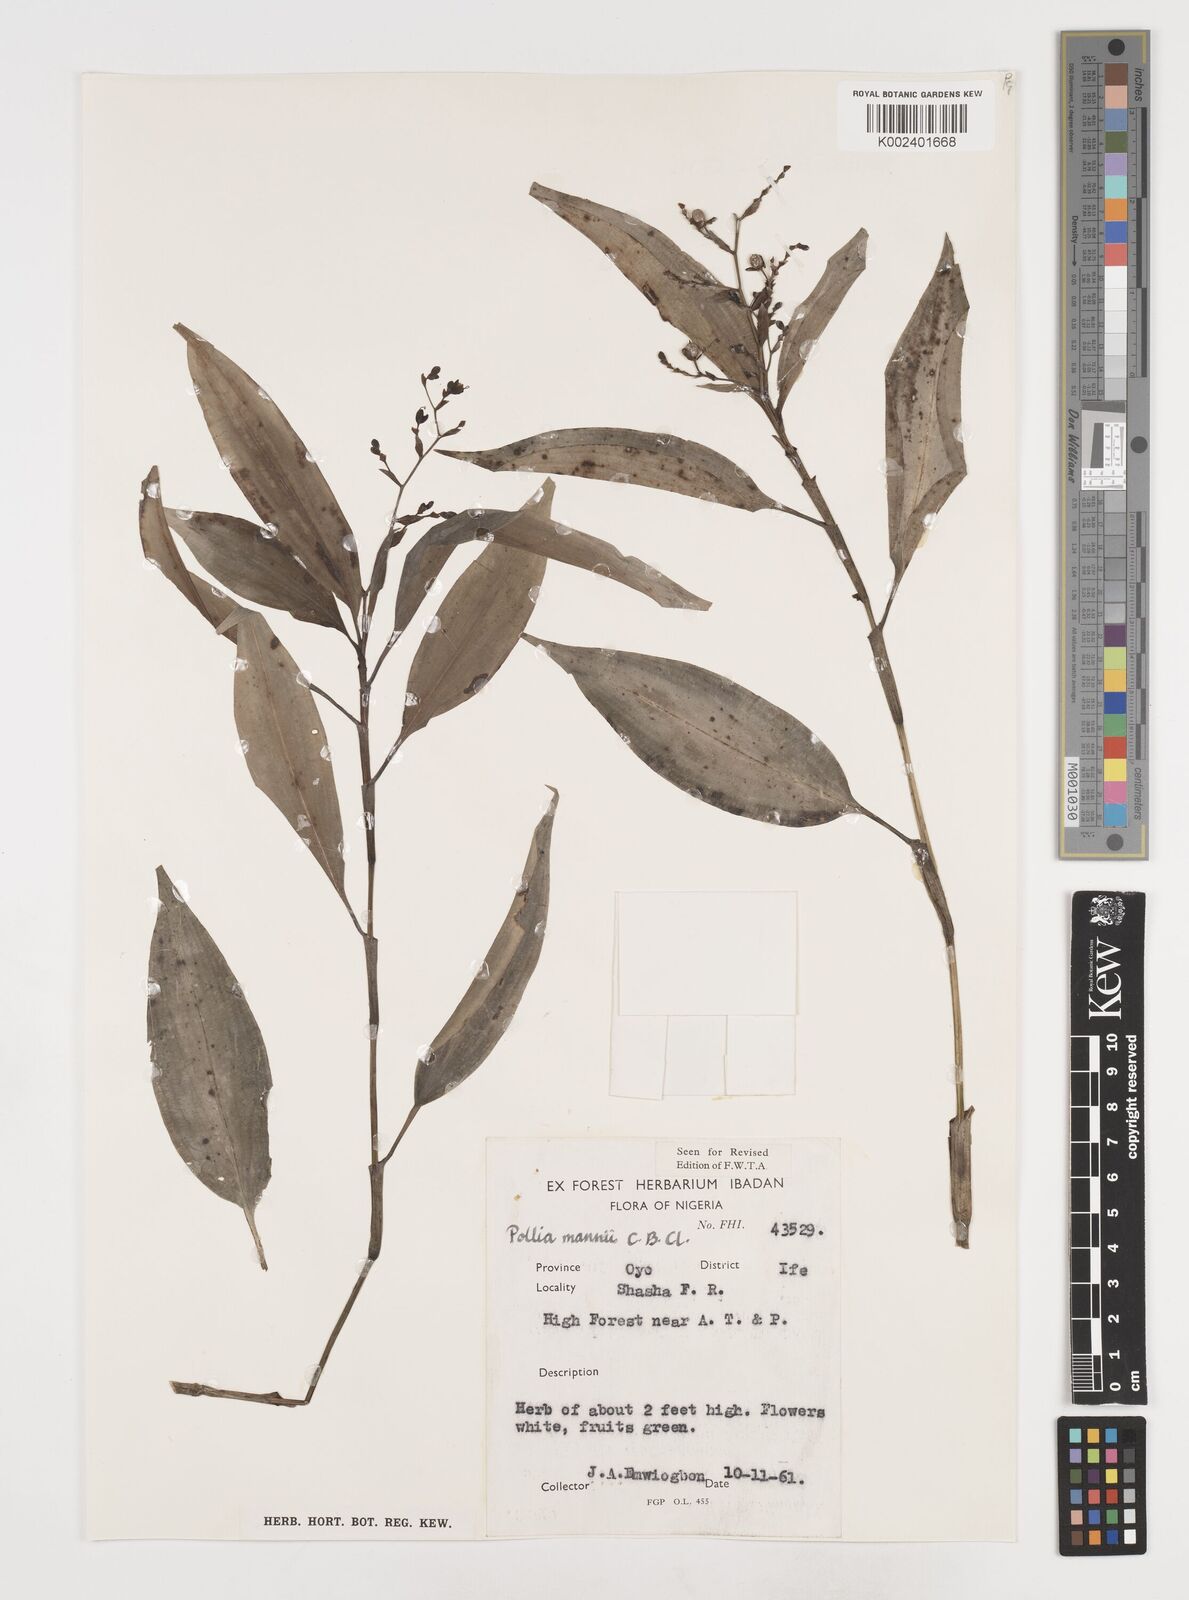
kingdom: Plantae
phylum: Tracheophyta
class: Liliopsida
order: Commelinales
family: Commelinaceae
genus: Pollia
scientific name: Pollia mannii
